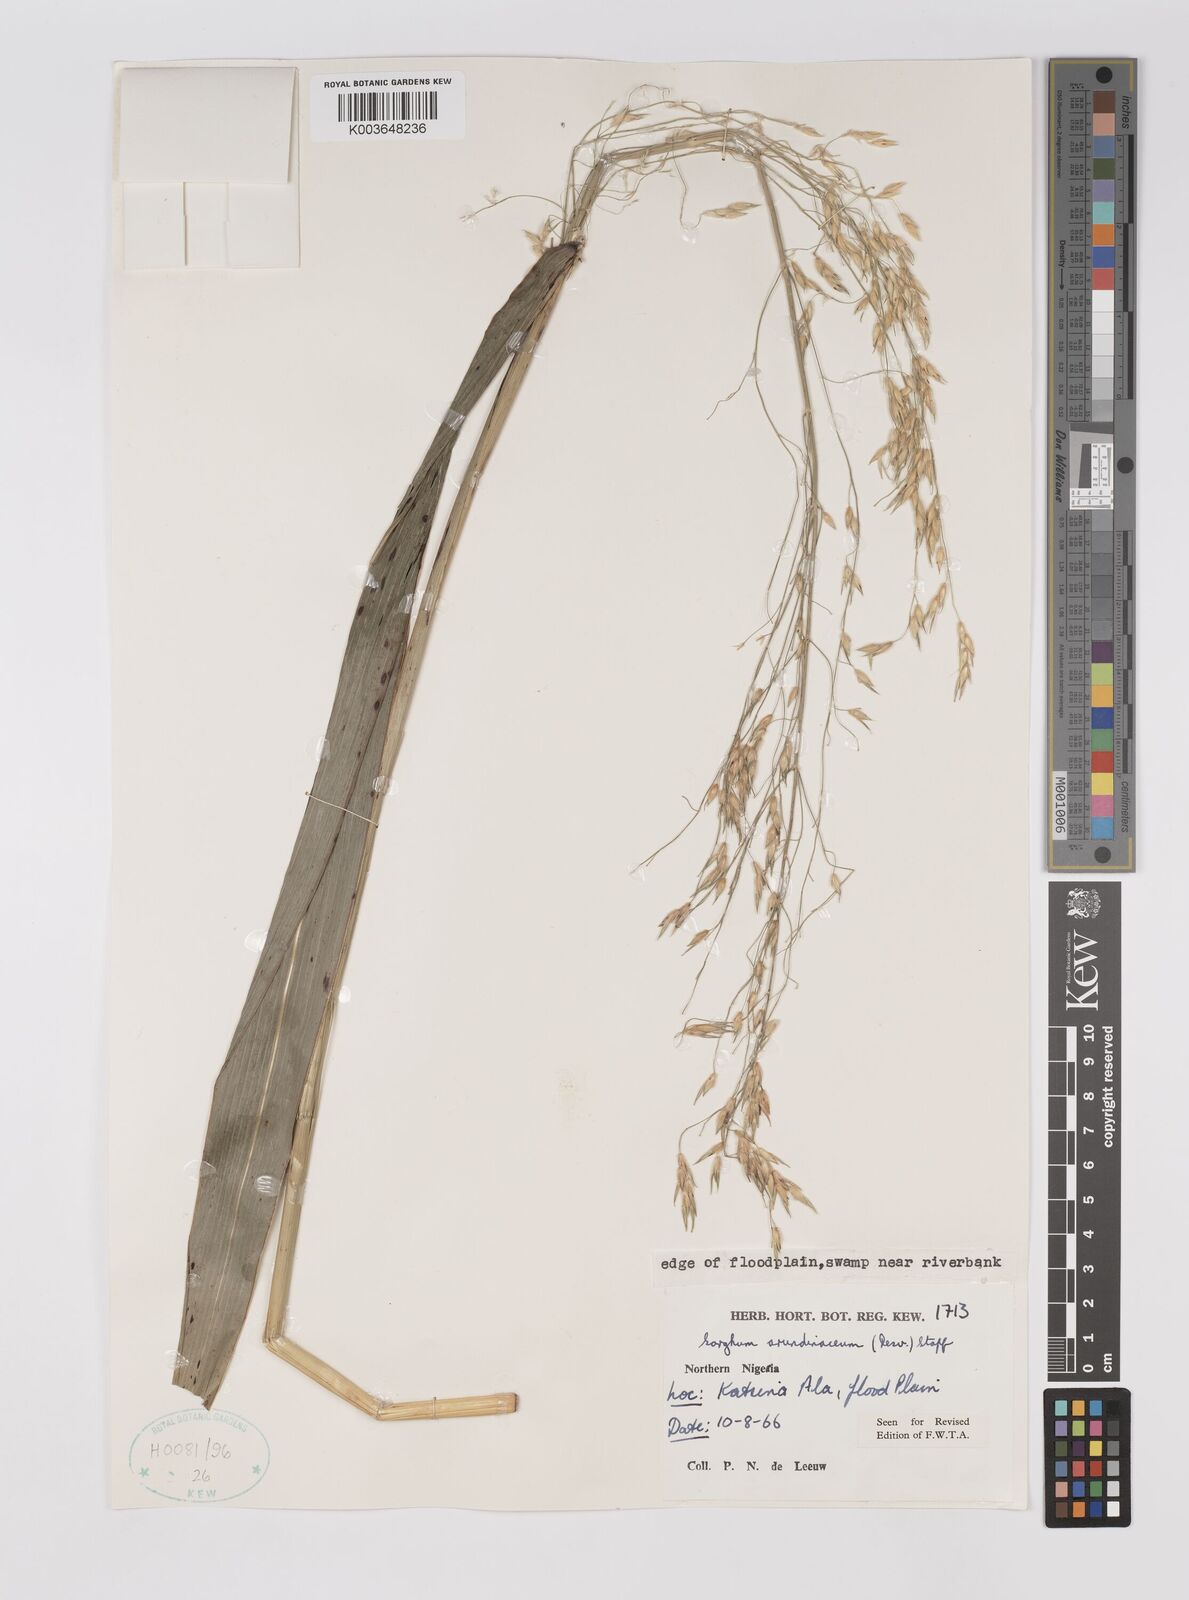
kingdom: Plantae
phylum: Tracheophyta
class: Liliopsida
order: Poales
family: Poaceae
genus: Sorghum
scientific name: Sorghum arundinaceum
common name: Sorghum
